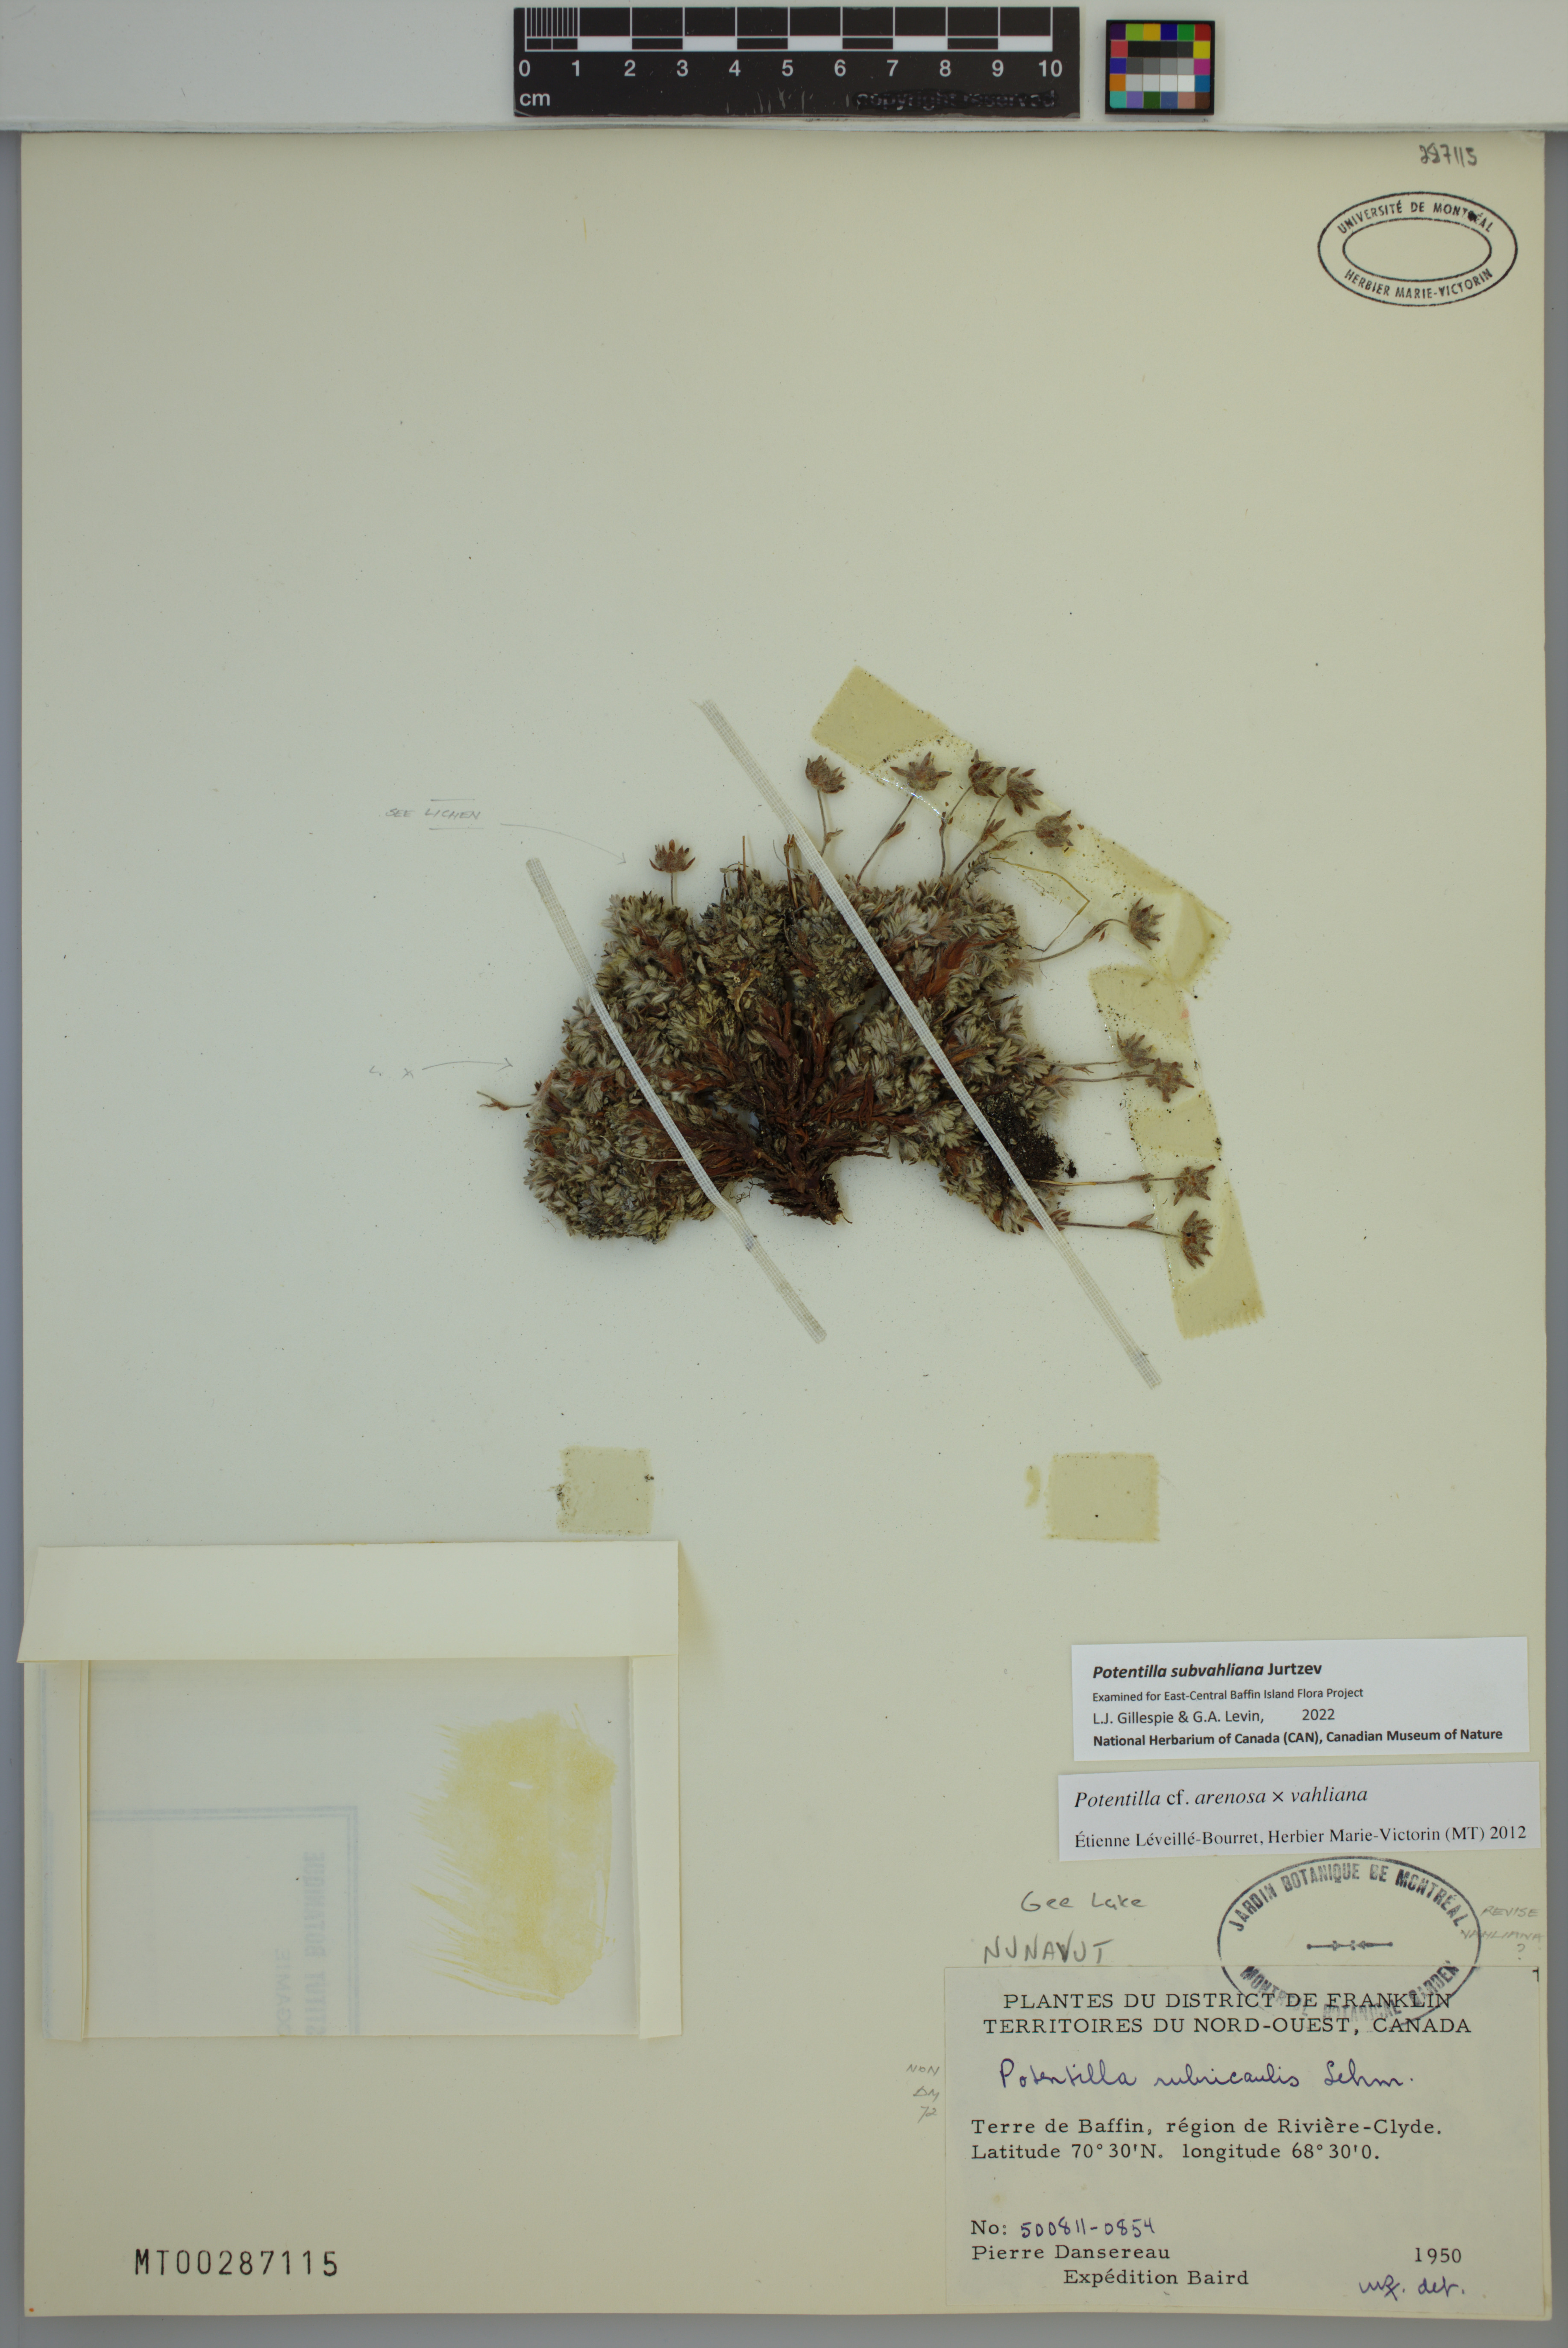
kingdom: Plantae
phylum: Tracheophyta
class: Magnoliopsida
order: Rosales
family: Rosaceae
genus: Potentilla
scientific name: Potentilla subvahliana
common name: Far northern cinquefoil
